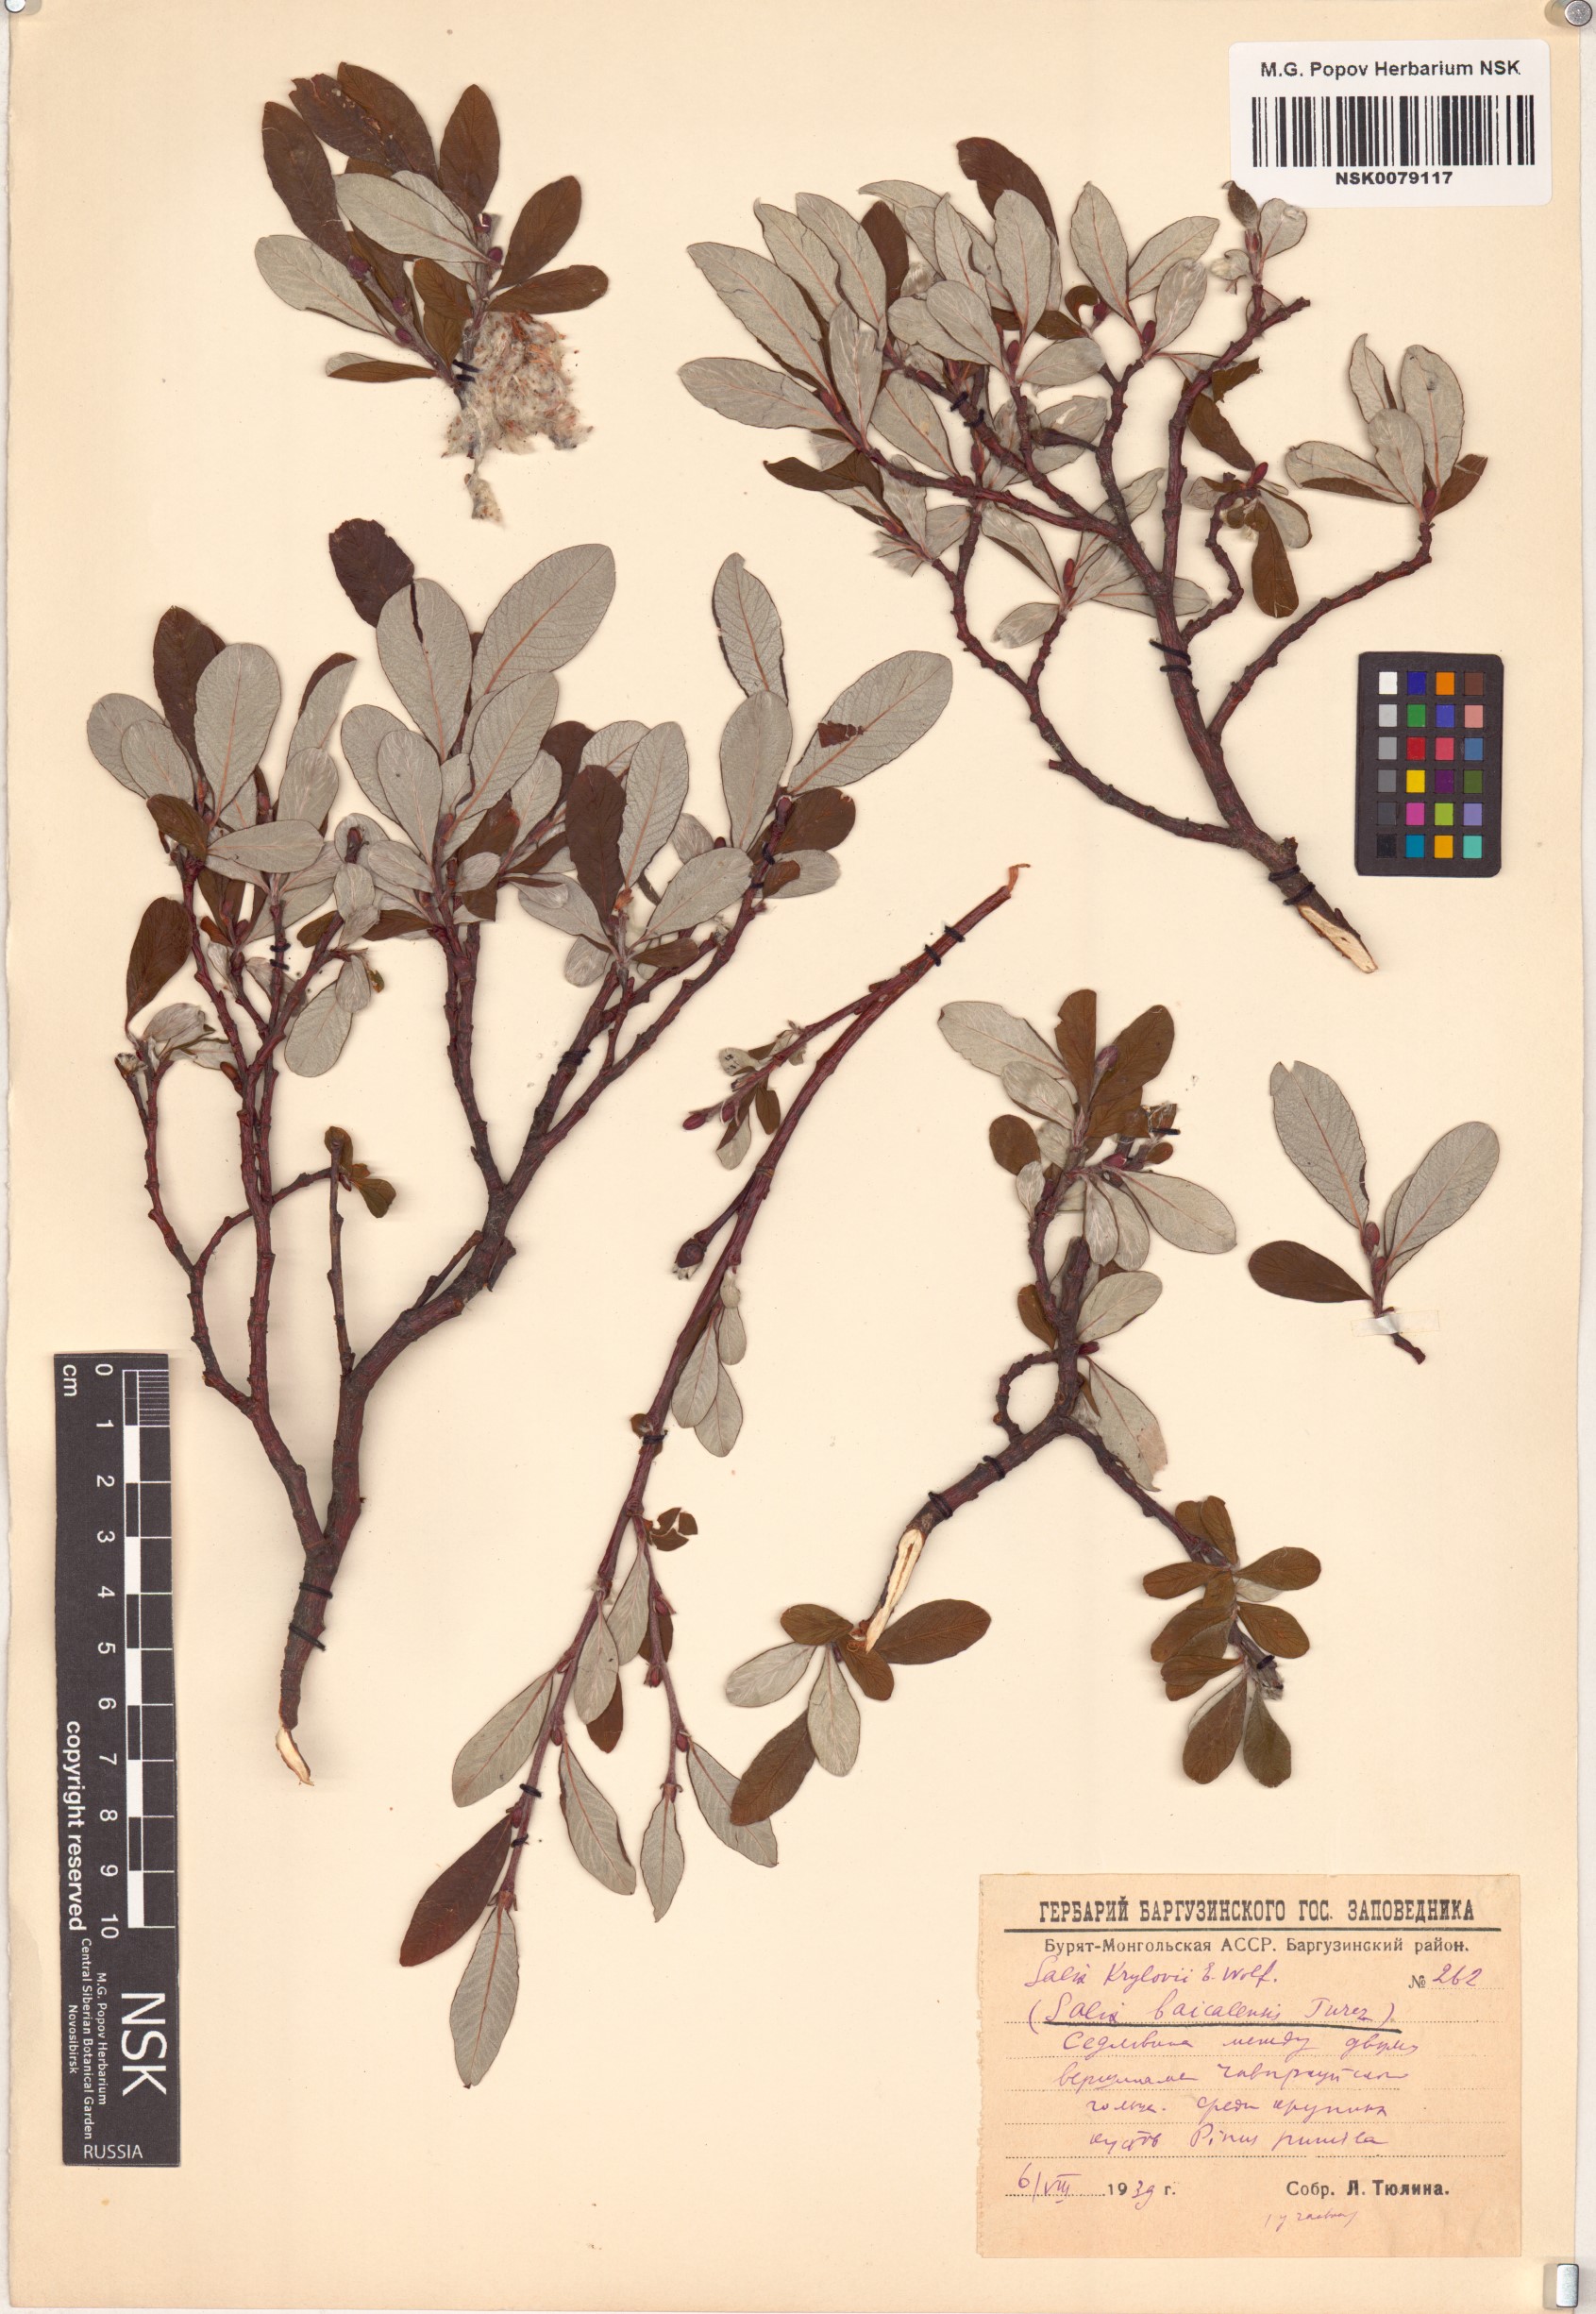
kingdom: Plantae
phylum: Tracheophyta
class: Magnoliopsida
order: Malpighiales
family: Salicaceae
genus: Salix
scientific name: Salix krylovii
